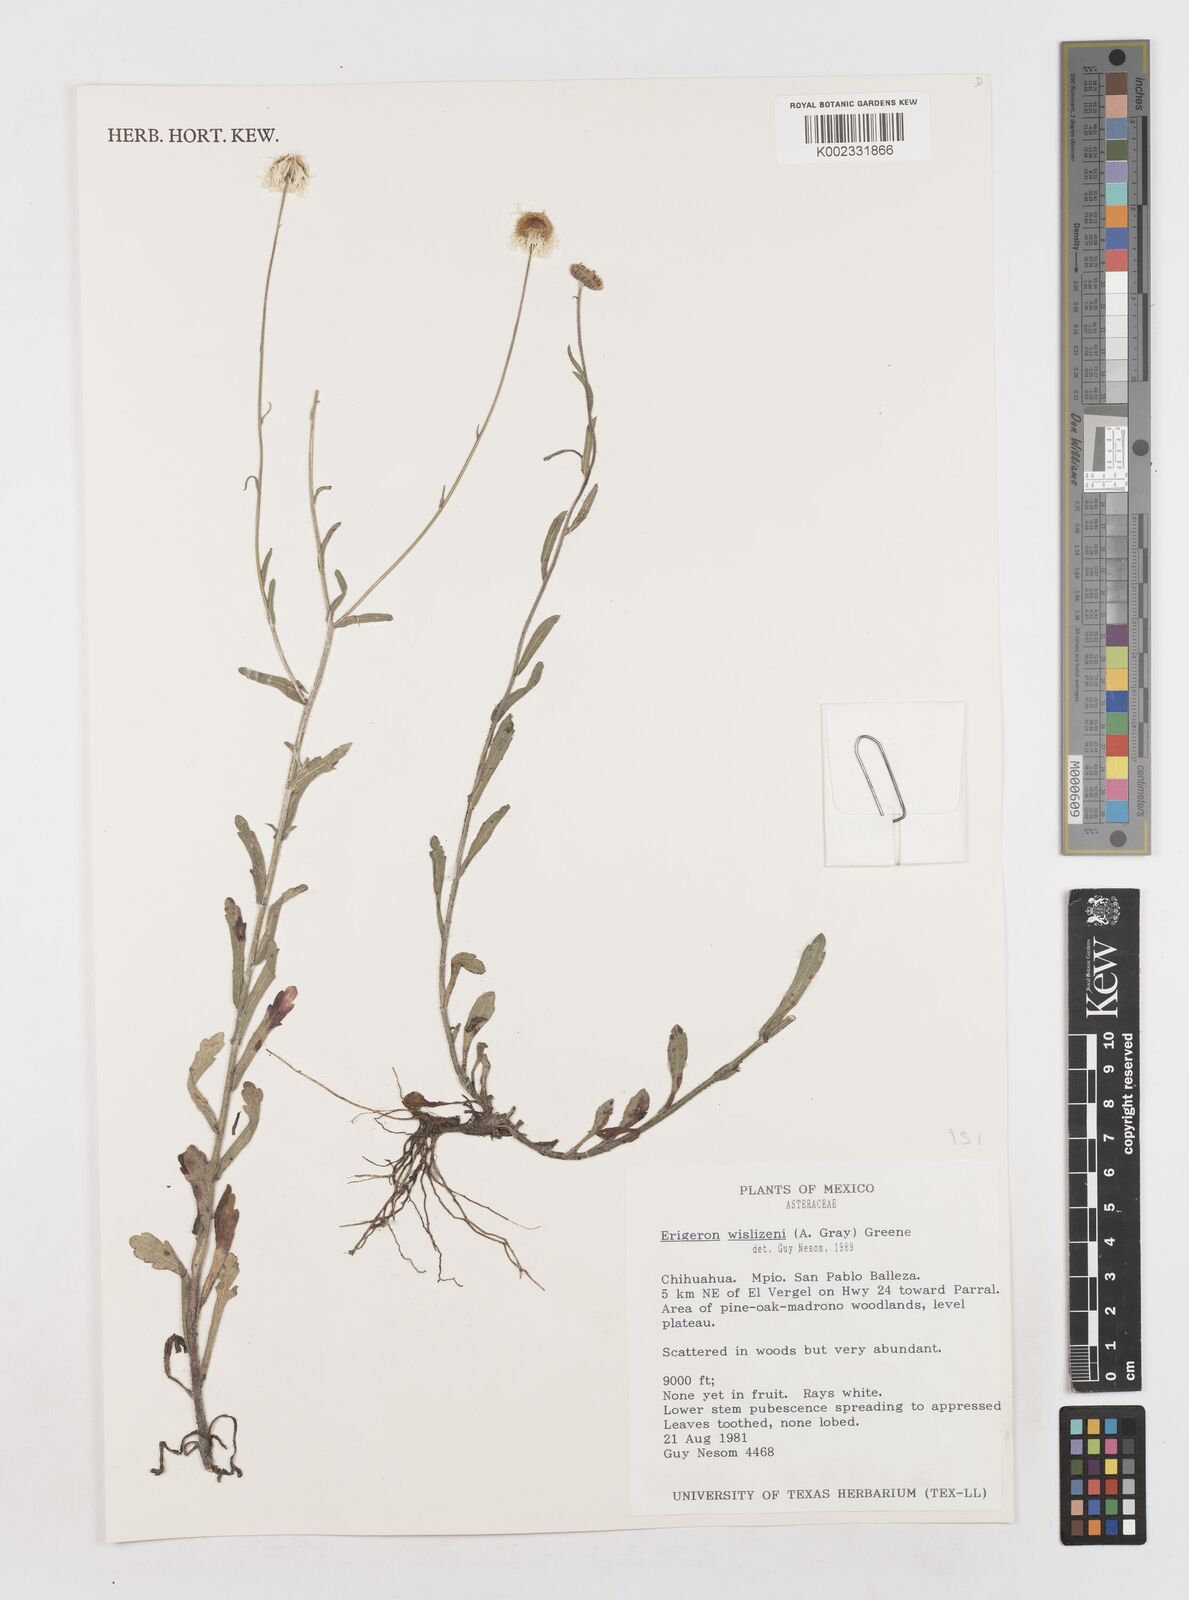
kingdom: Plantae
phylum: Tracheophyta
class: Magnoliopsida
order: Asterales
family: Asteraceae
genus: Erigeron
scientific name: Erigeron wislizeni
